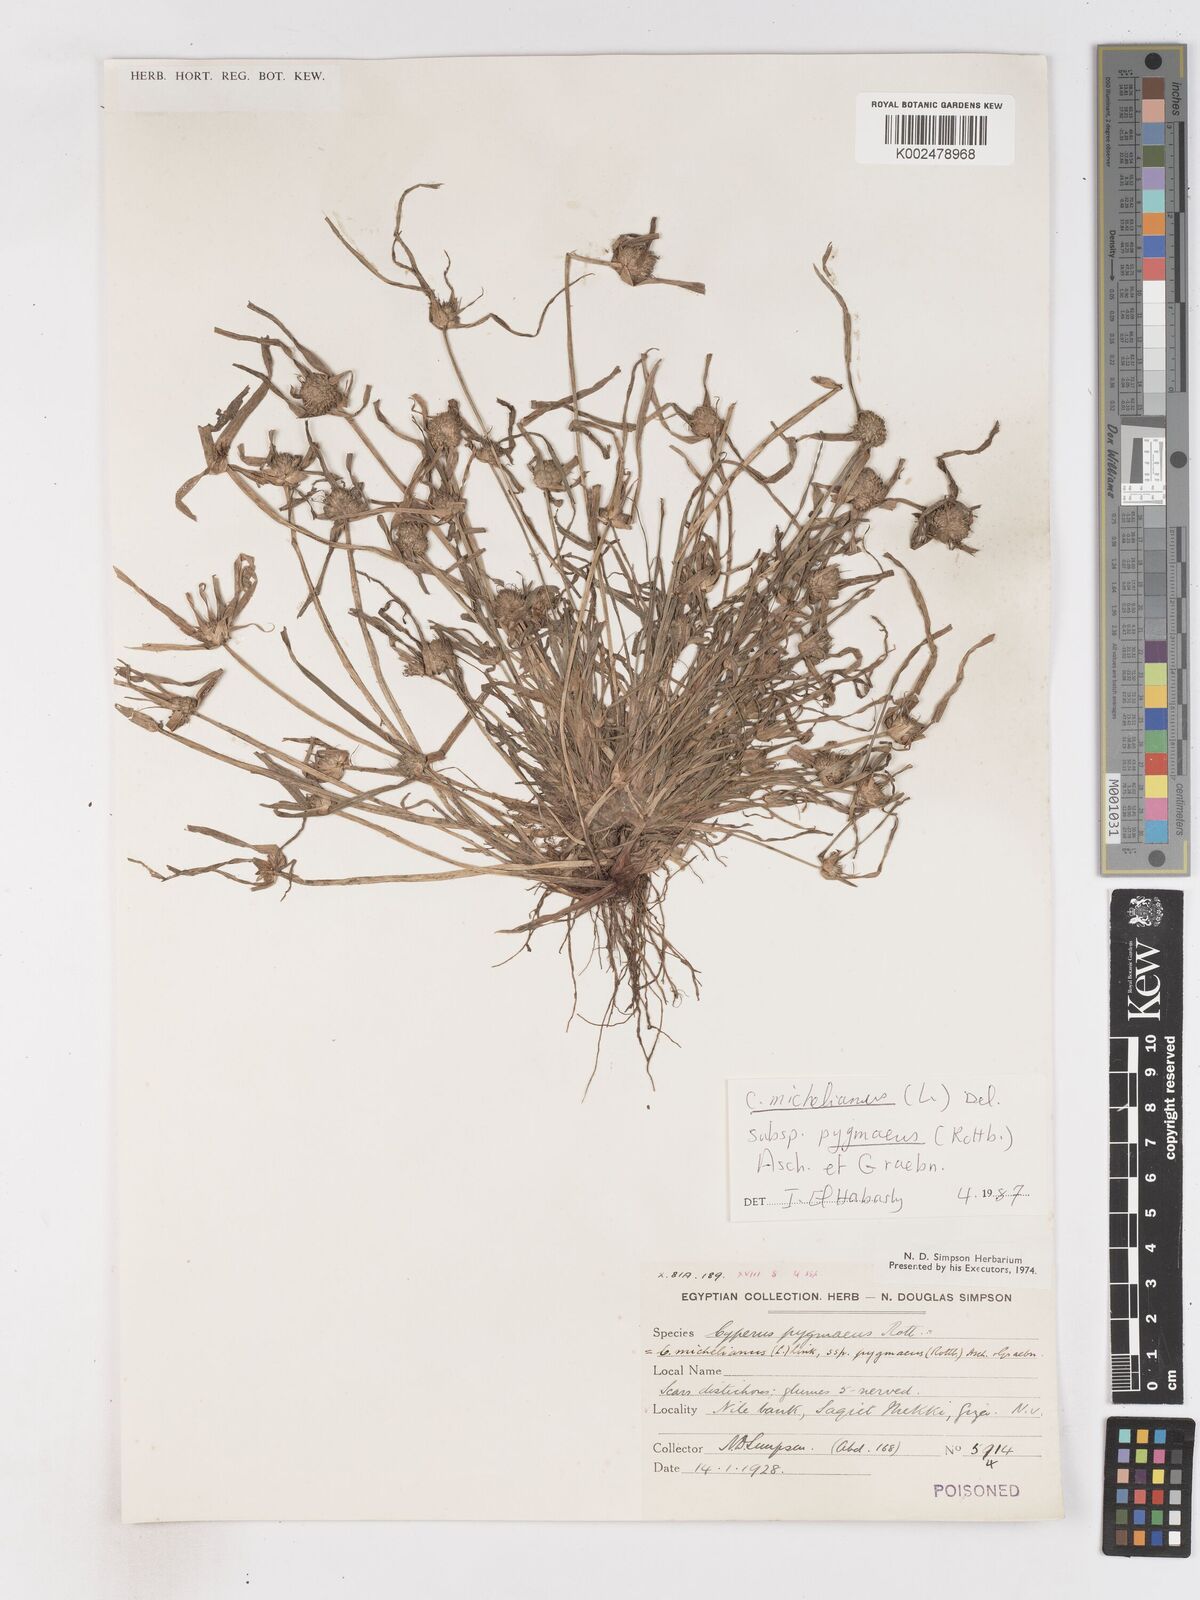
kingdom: Plantae
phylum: Tracheophyta
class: Liliopsida
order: Poales
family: Cyperaceae
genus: Cyperus
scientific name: Cyperus michelianus
